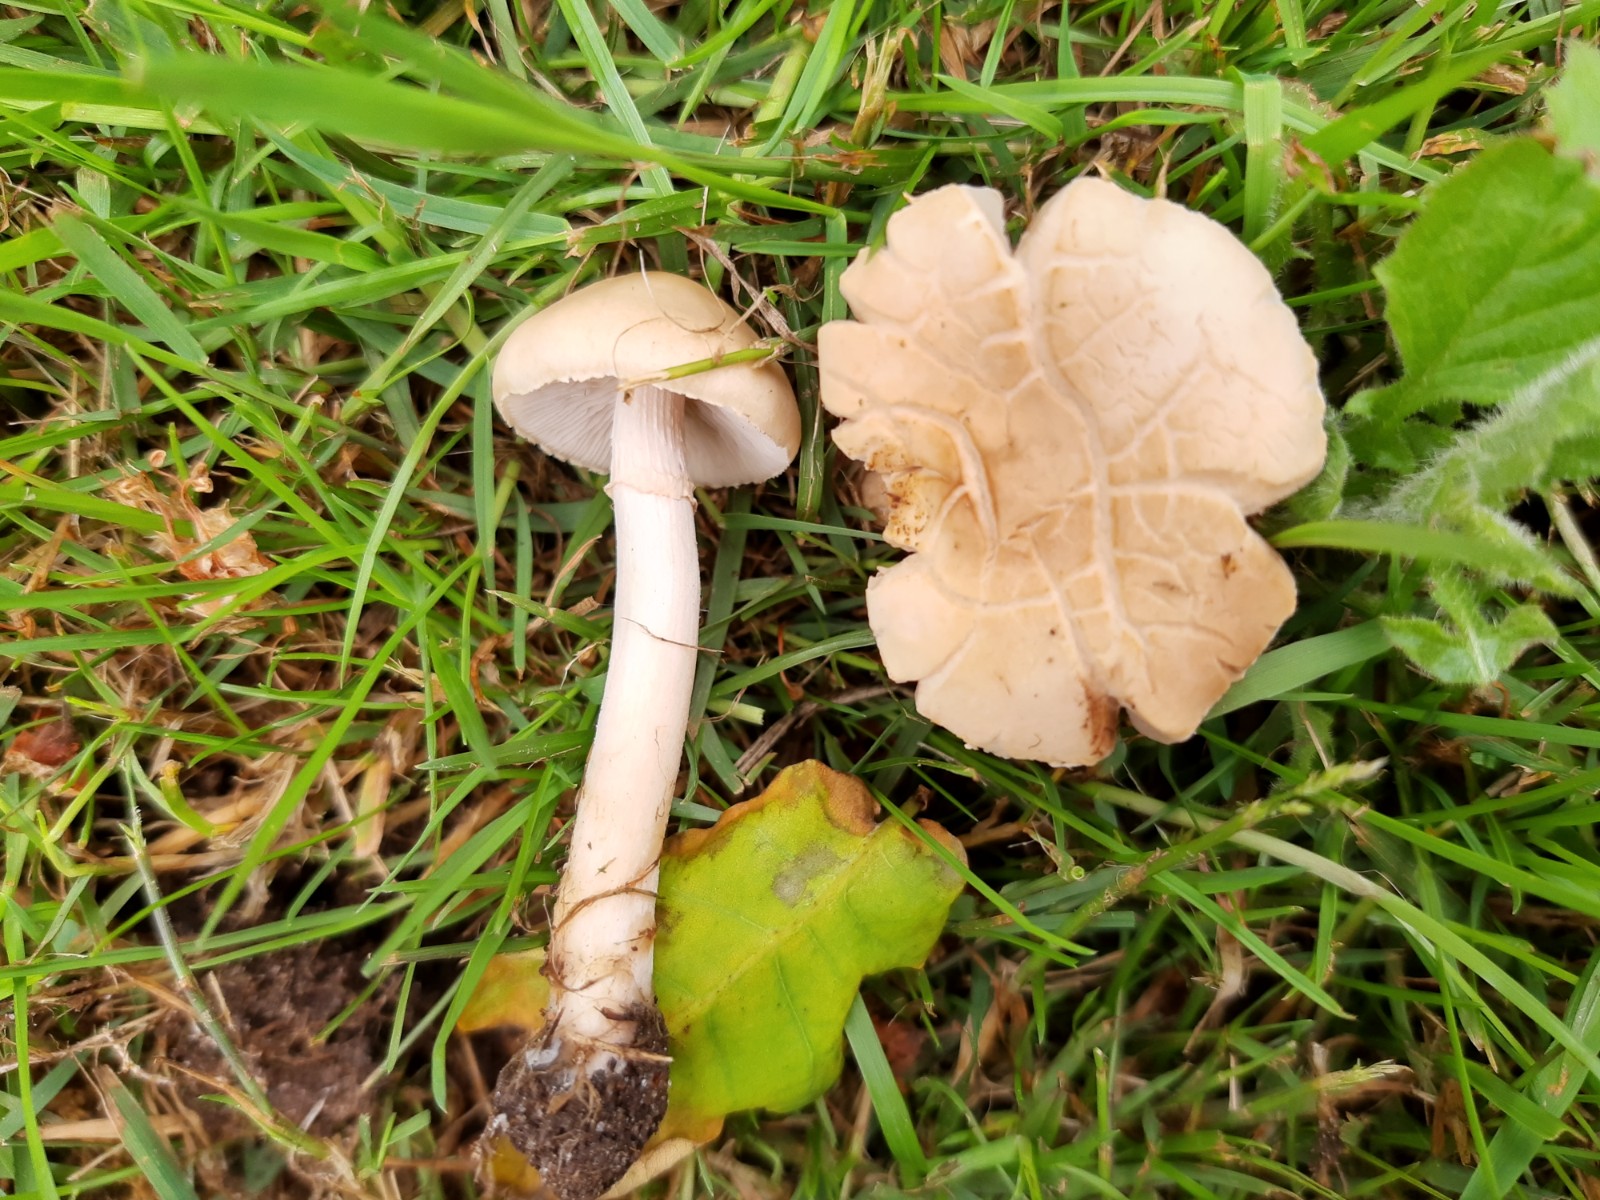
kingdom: Fungi
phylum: Basidiomycota
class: Agaricomycetes
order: Agaricales
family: Strophariaceae
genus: Agrocybe
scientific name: Agrocybe praecox
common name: tidlig agerhat
